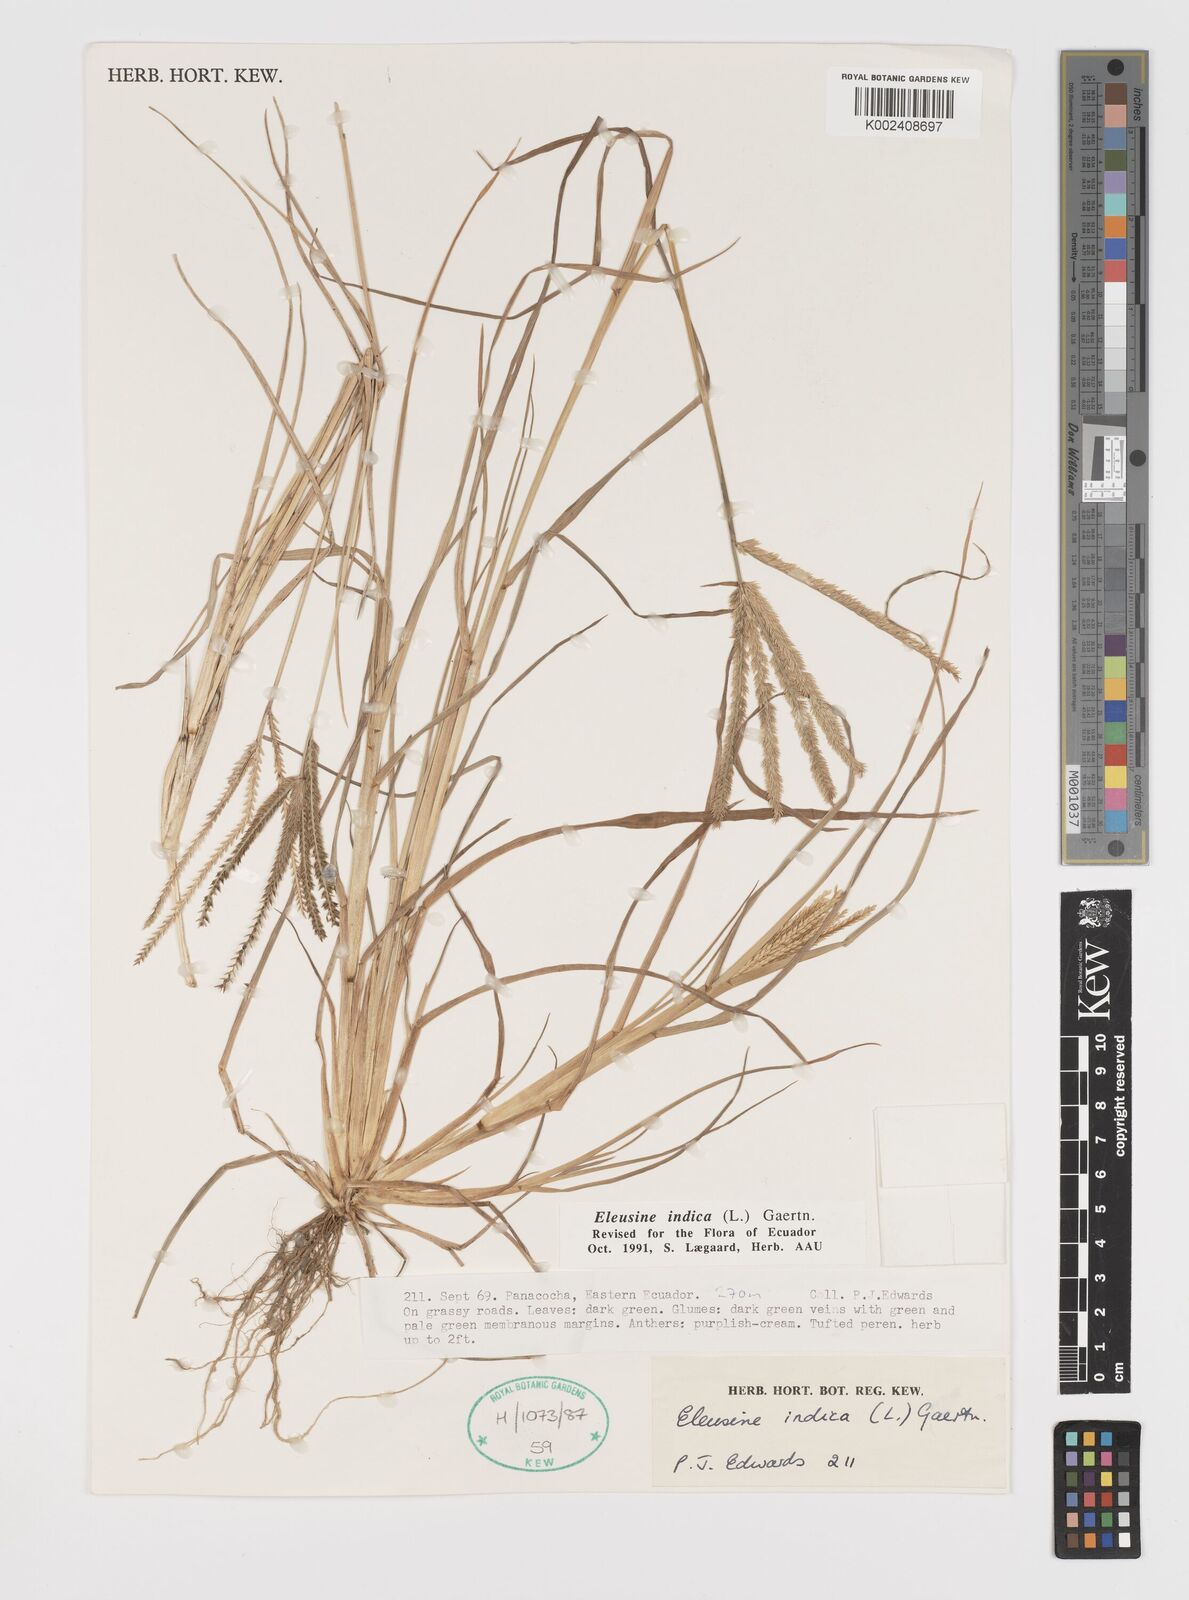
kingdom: Plantae
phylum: Tracheophyta
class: Liliopsida
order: Poales
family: Poaceae
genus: Eleusine
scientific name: Eleusine indica
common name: Yard-grass
